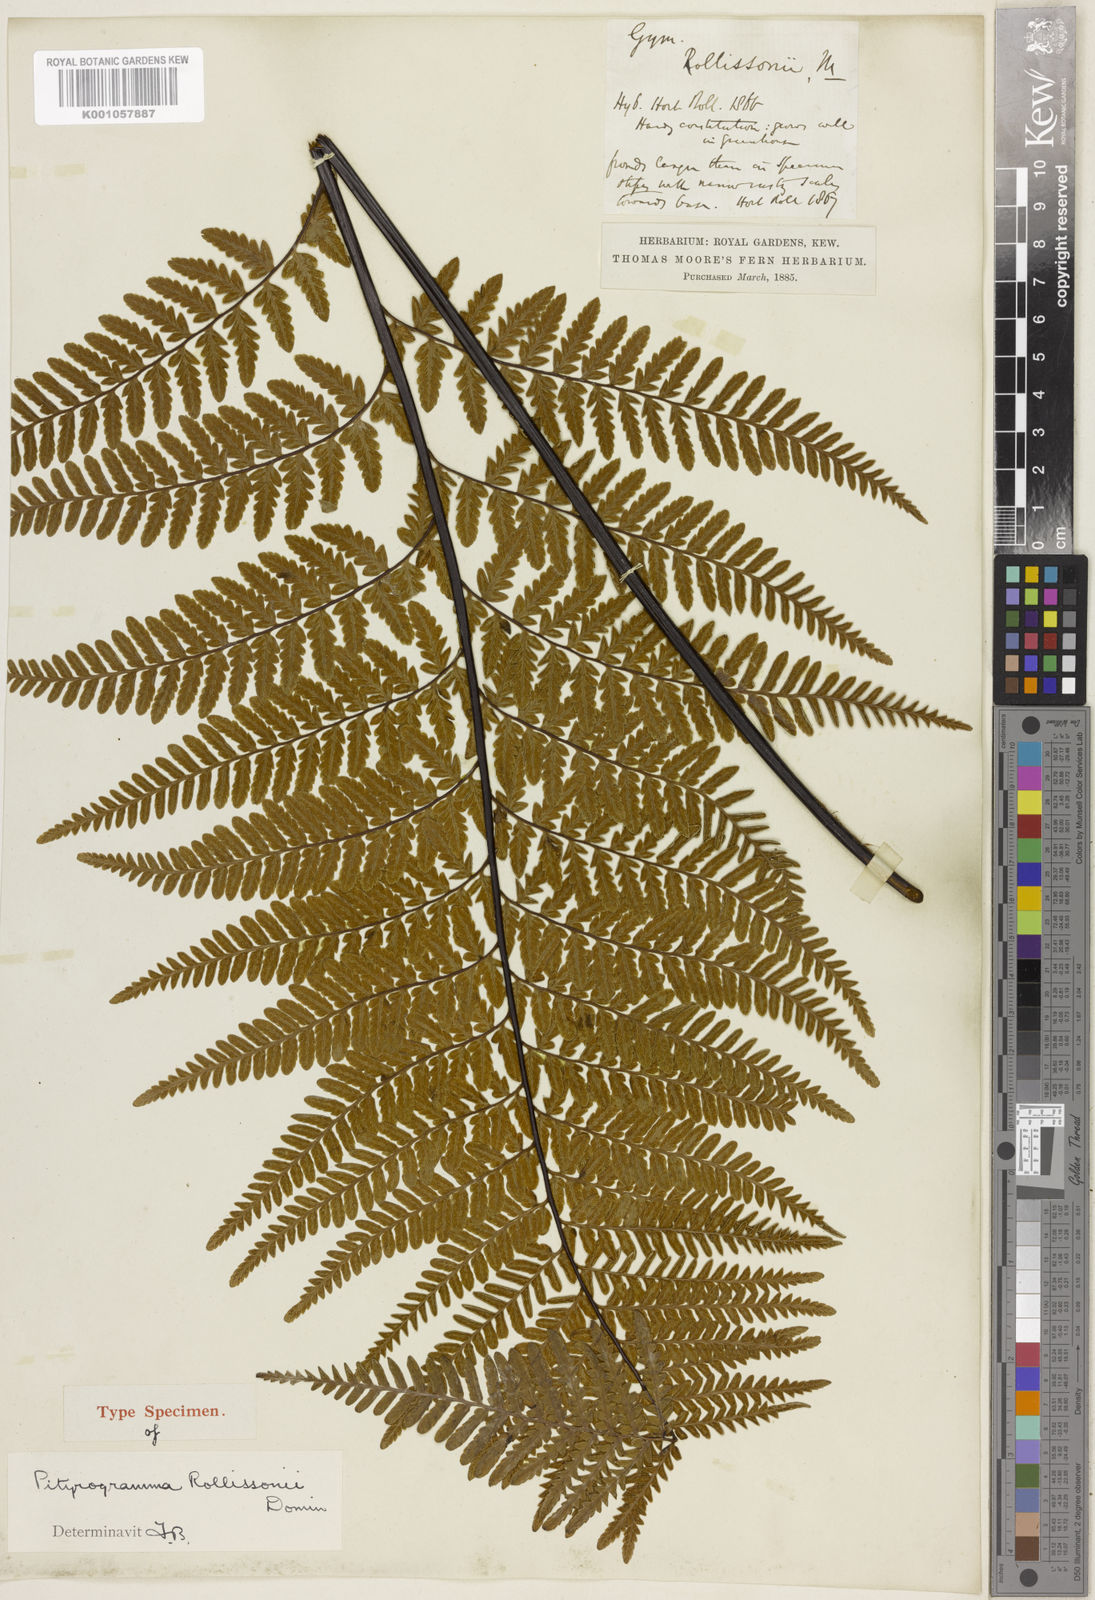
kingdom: Plantae
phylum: Tracheophyta
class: Polypodiopsida
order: Polypodiales
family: Pteridaceae
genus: Pityrogramma
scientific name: Pityrogramma
